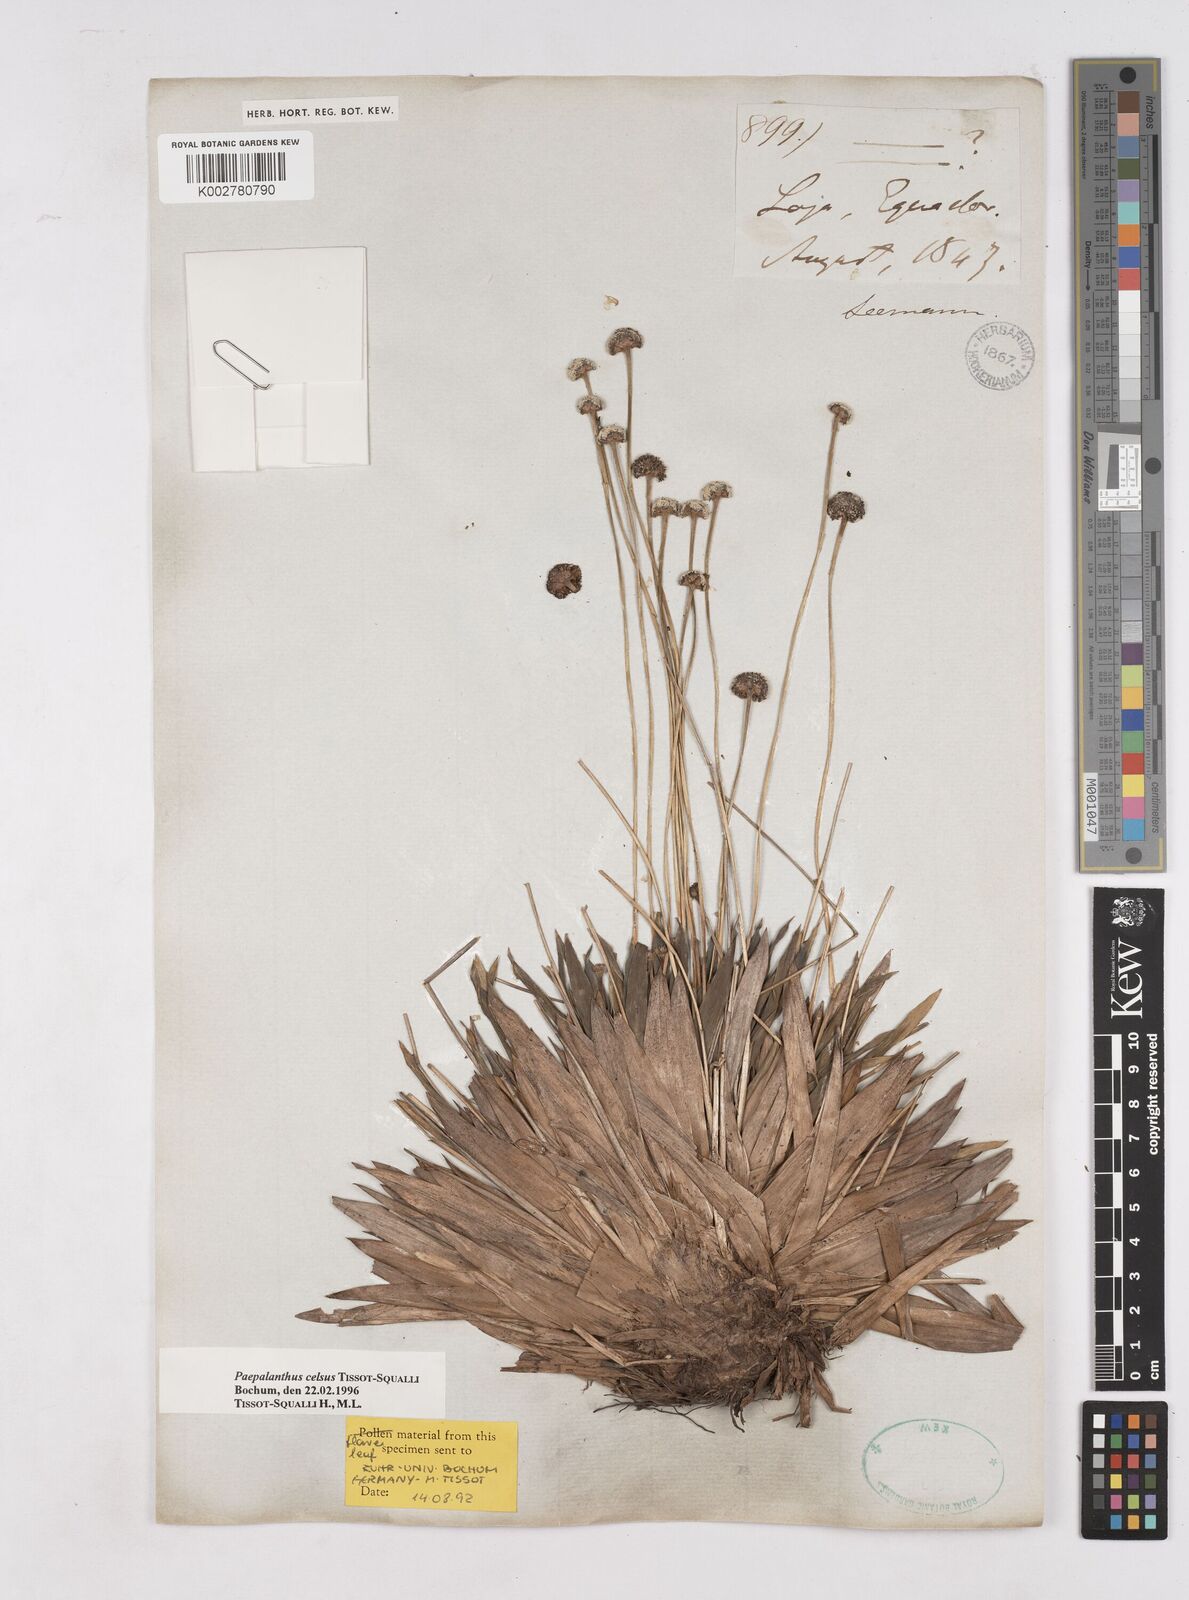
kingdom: Plantae
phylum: Tracheophyta
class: Liliopsida
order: Poales
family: Eriocaulaceae
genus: Paepalanthus
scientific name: Paepalanthus celsus
